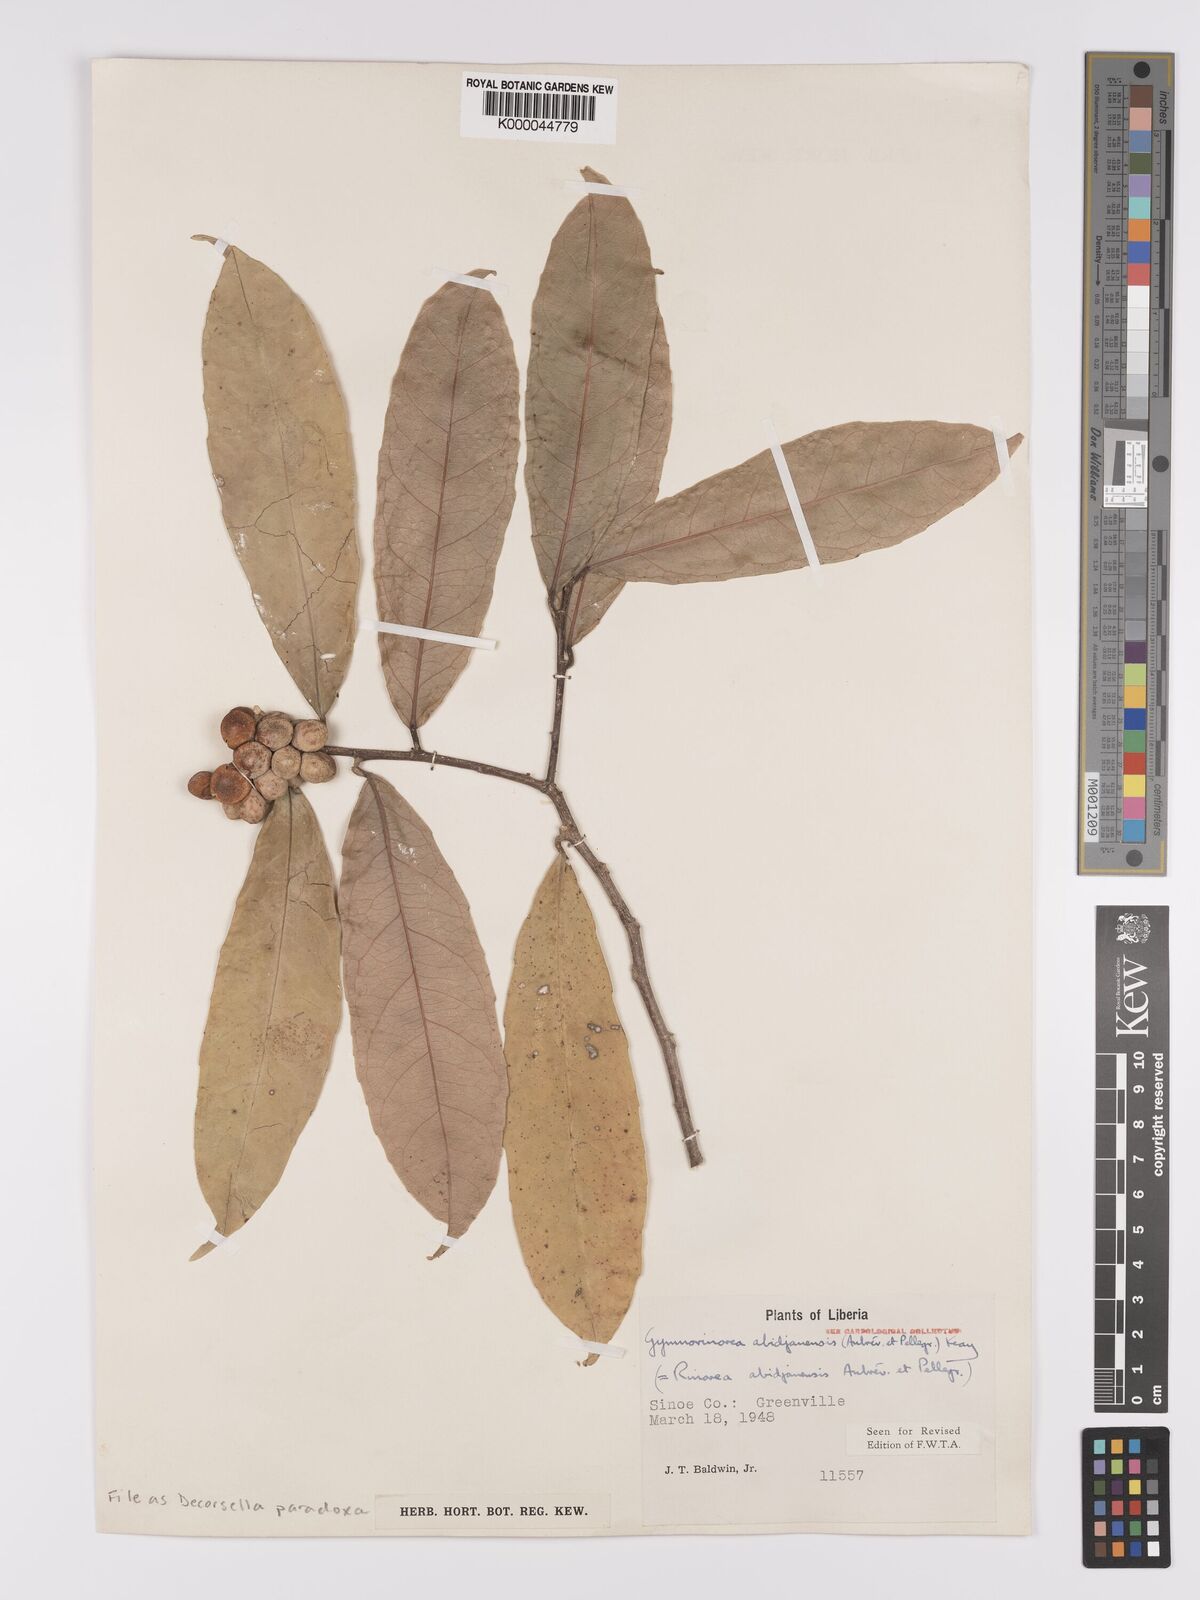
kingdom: Plantae
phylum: Tracheophyta
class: Magnoliopsida
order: Malpighiales
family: Violaceae
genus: Decorsella
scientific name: Decorsella paradoxa
